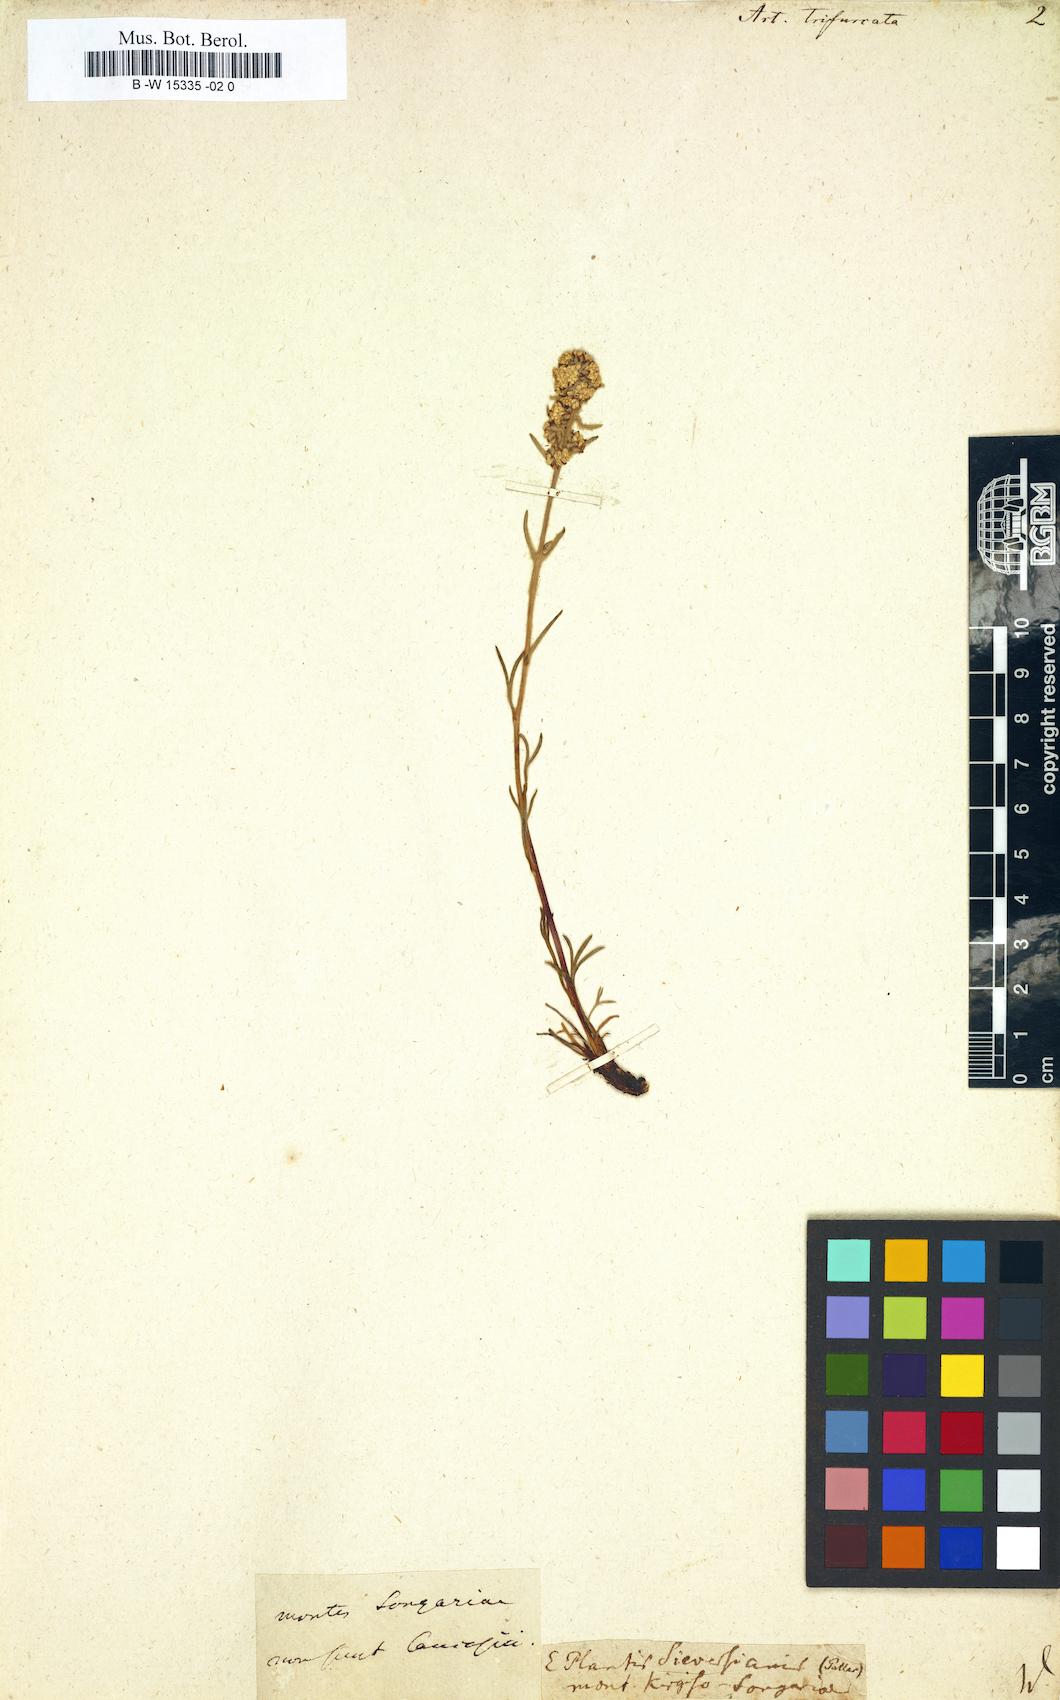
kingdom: Plantae
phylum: Tracheophyta
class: Magnoliopsida
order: Asterales
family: Asteraceae
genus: Artemisia
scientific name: Artemisia furcata
